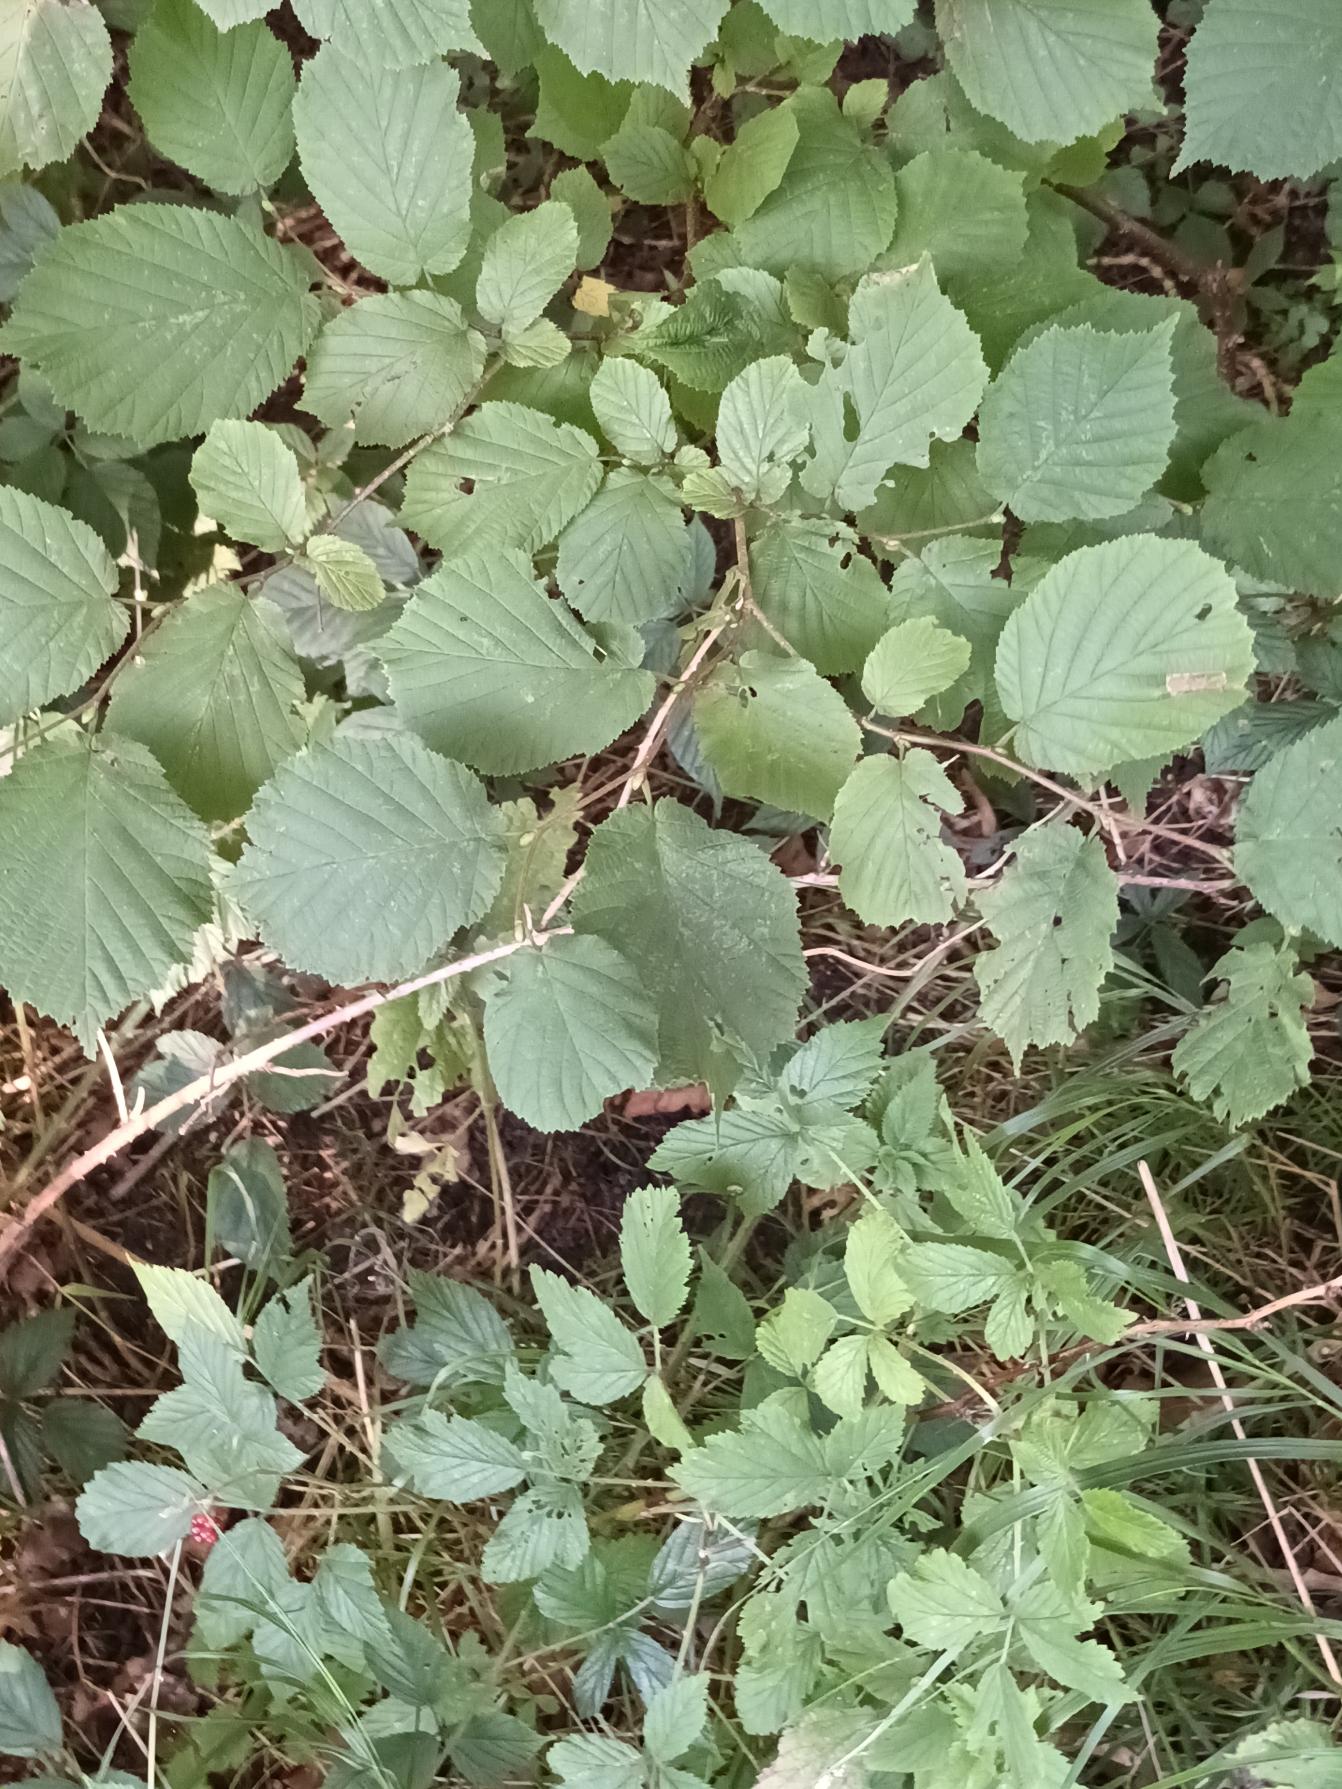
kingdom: Plantae
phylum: Tracheophyta
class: Magnoliopsida
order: Fagales
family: Betulaceae
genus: Corylus
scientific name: Corylus avellana
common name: Hassel
